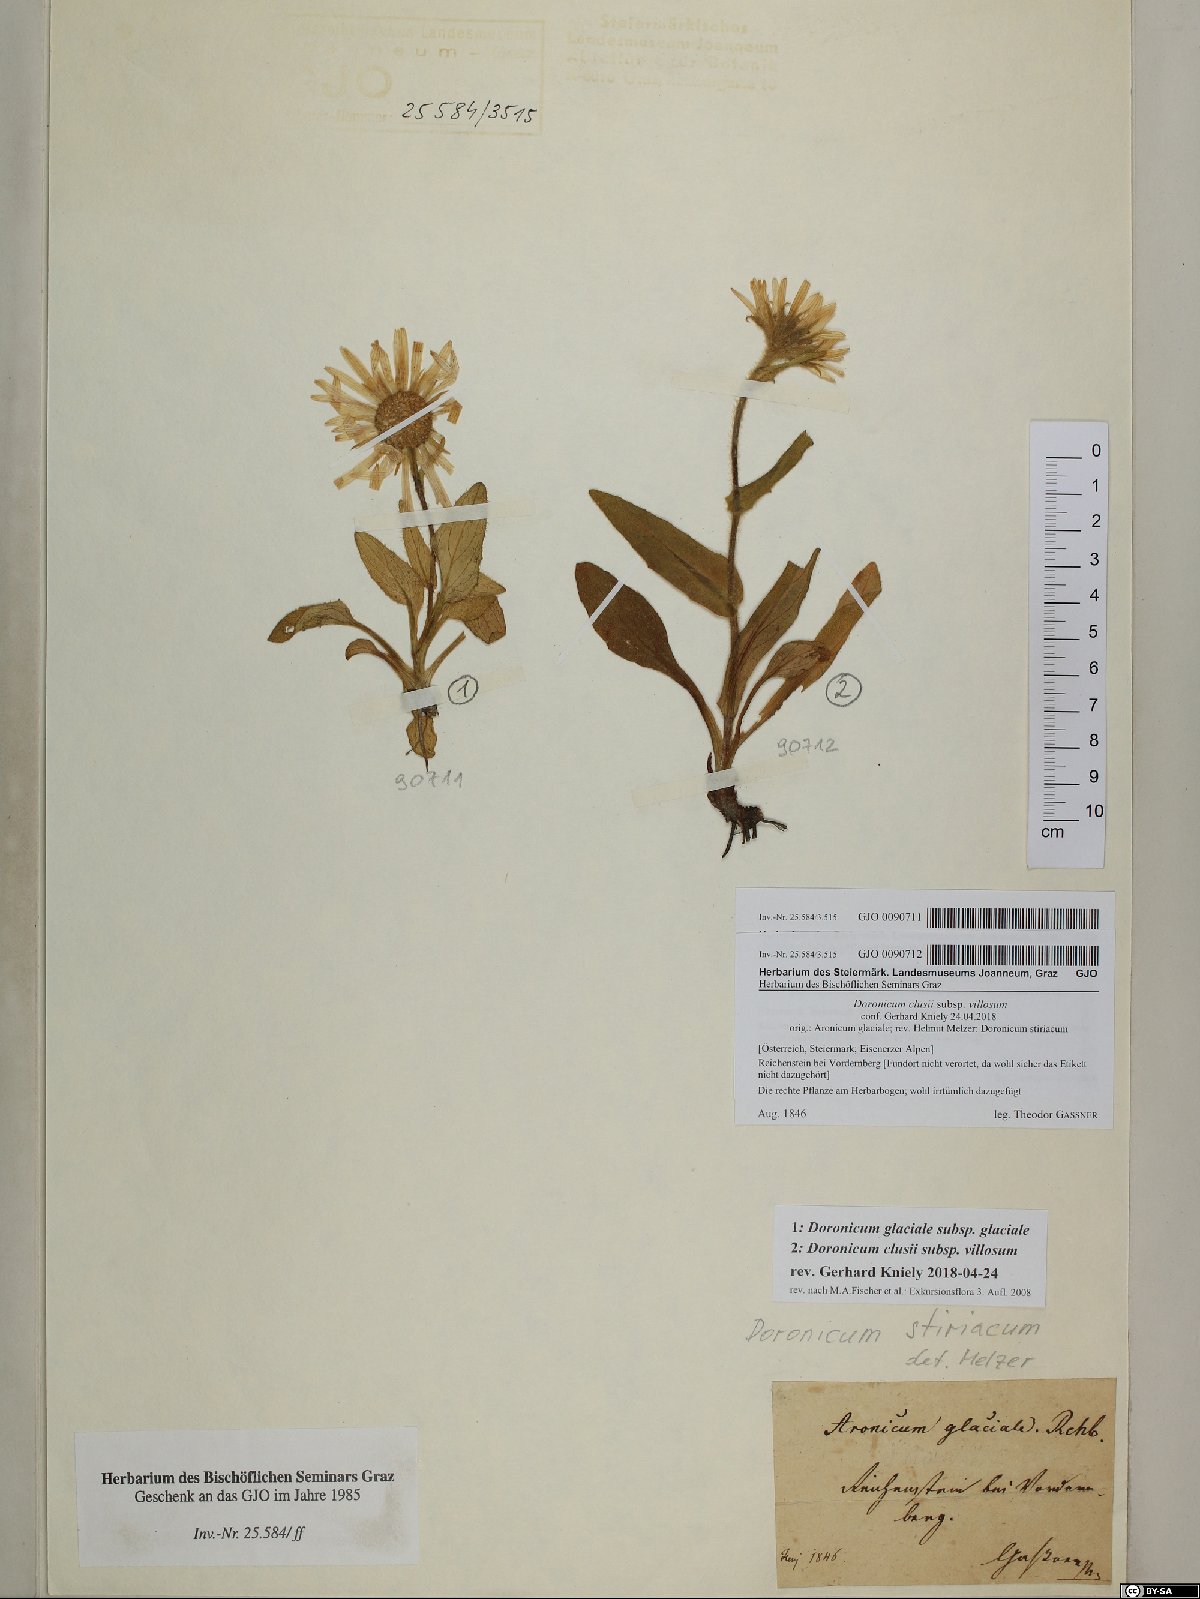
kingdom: Plantae
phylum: Tracheophyta
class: Magnoliopsida
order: Asterales
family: Asteraceae
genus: Doronicum
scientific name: Doronicum glaciale
